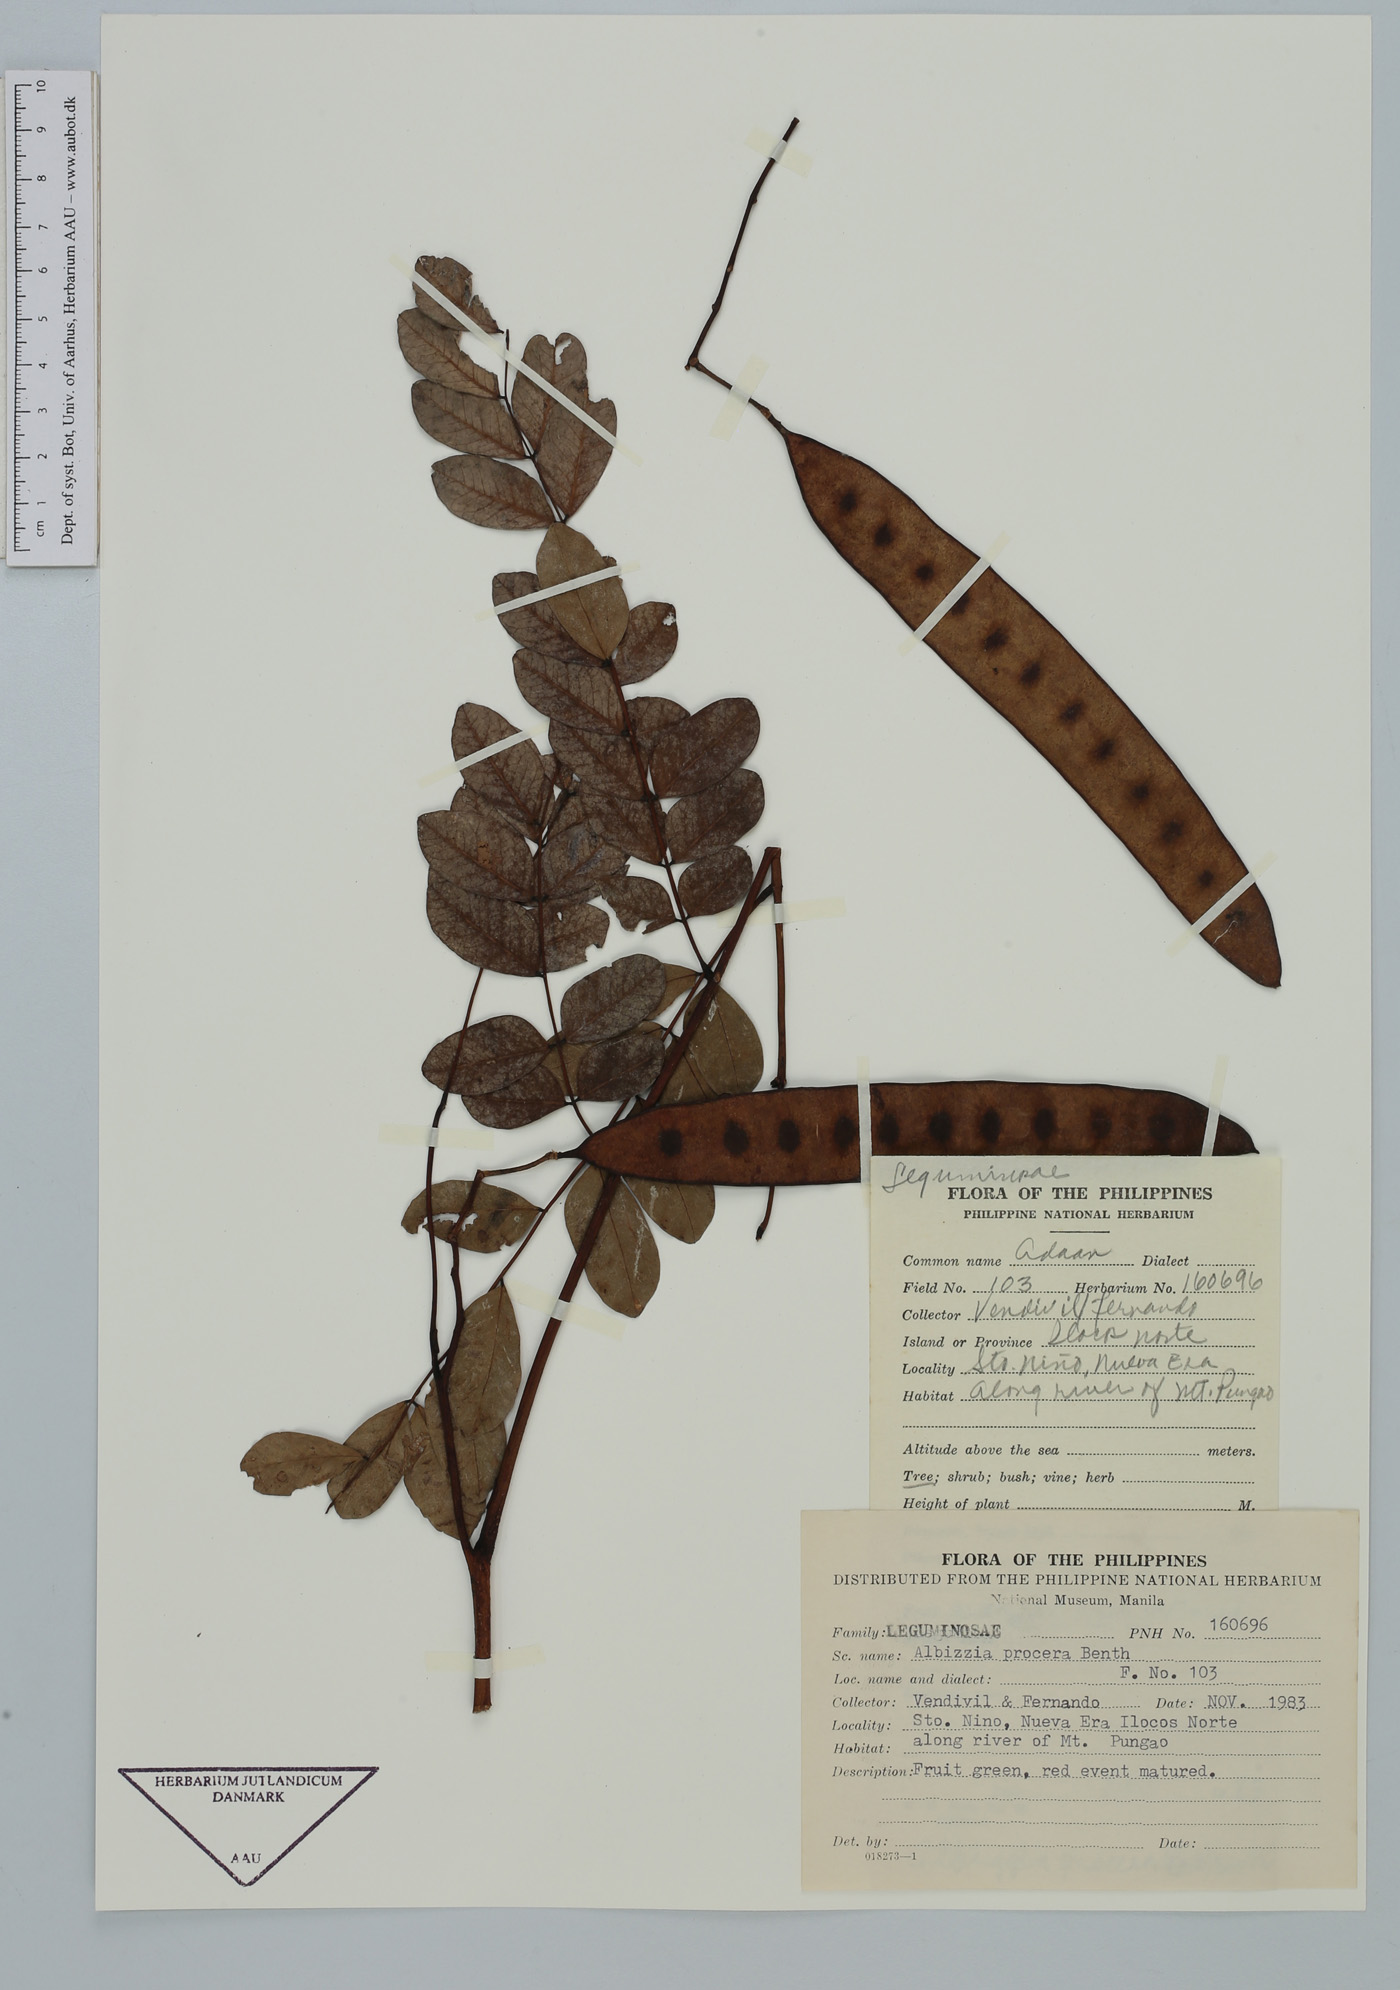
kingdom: Plantae
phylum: Tracheophyta
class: Magnoliopsida
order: Fabales
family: Fabaceae
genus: Albizia
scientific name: Albizia procera
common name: Tall albizia
